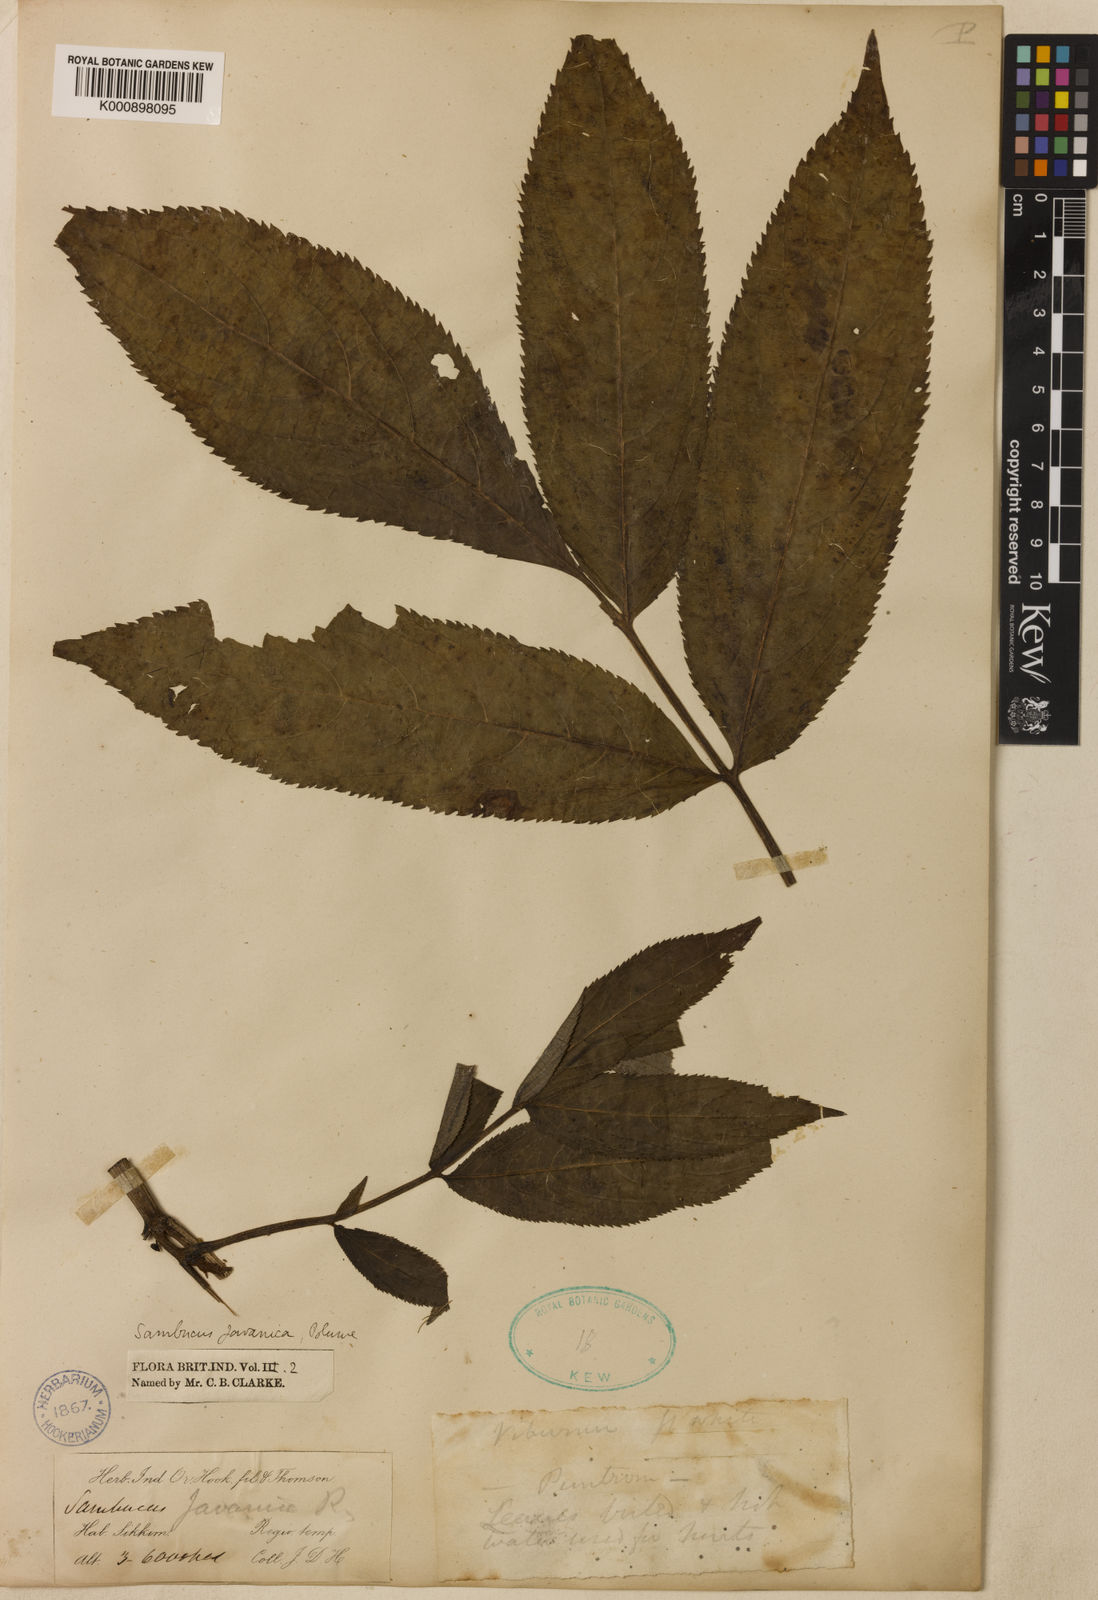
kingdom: Plantae
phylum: Tracheophyta
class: Magnoliopsida
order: Dipsacales
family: Viburnaceae
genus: Sambucus
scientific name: Sambucus javanica
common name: Chinese elder
